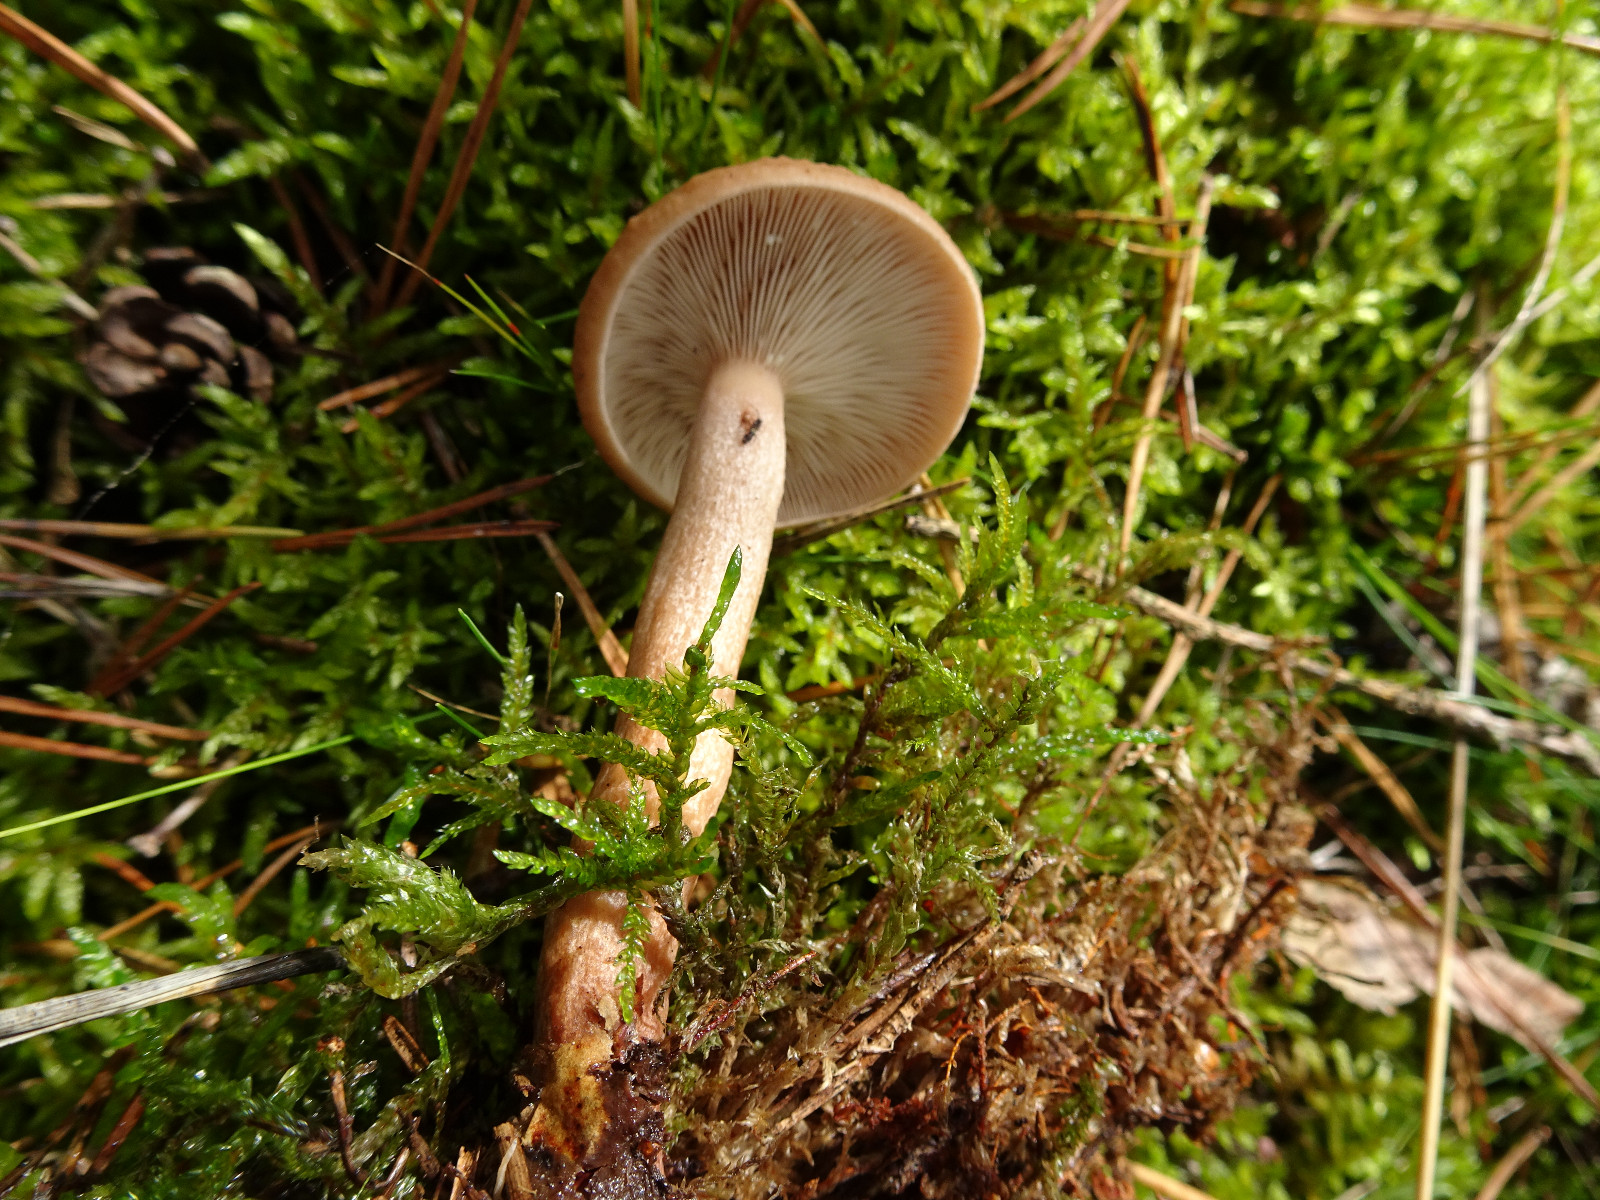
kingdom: Fungi
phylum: Basidiomycota
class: Agaricomycetes
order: Russulales
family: Russulaceae
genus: Lactarius
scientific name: Lactarius quietus
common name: ege-mælkehat
